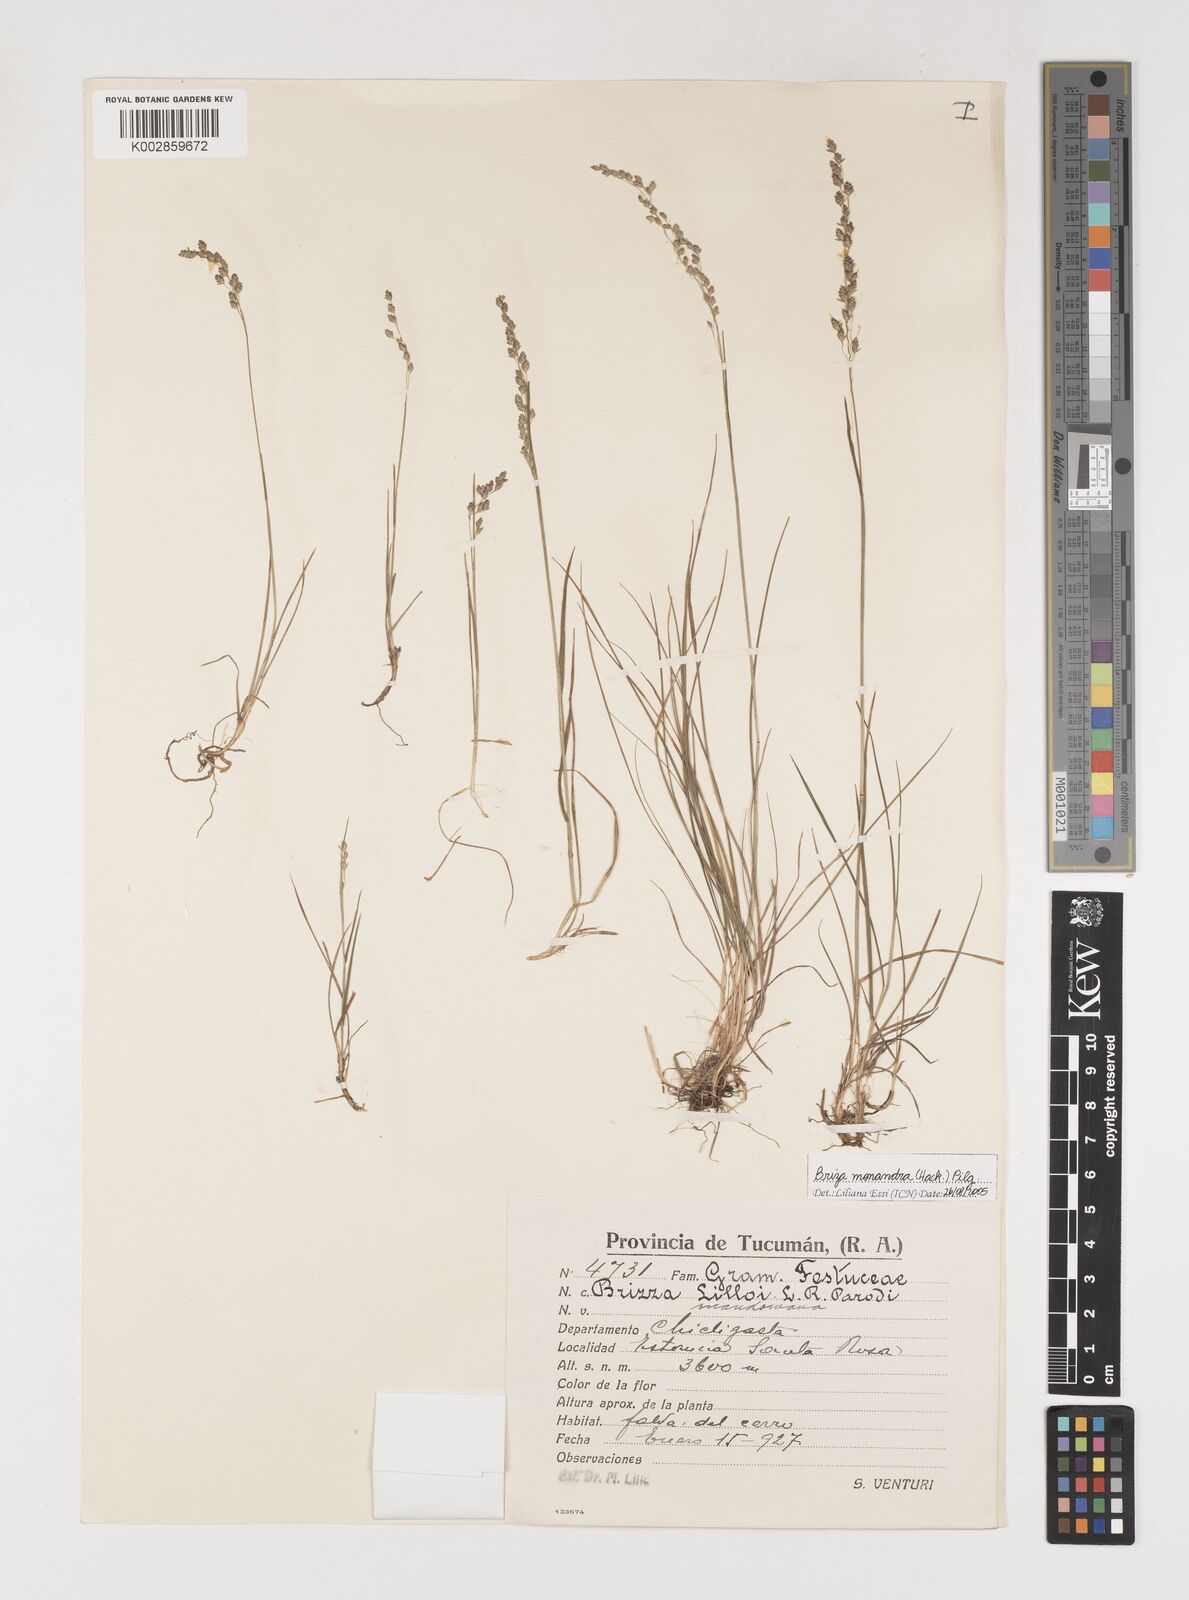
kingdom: Plantae
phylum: Tracheophyta
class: Liliopsida
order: Poales
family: Poaceae
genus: Poidium
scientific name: Poidium monandrum
